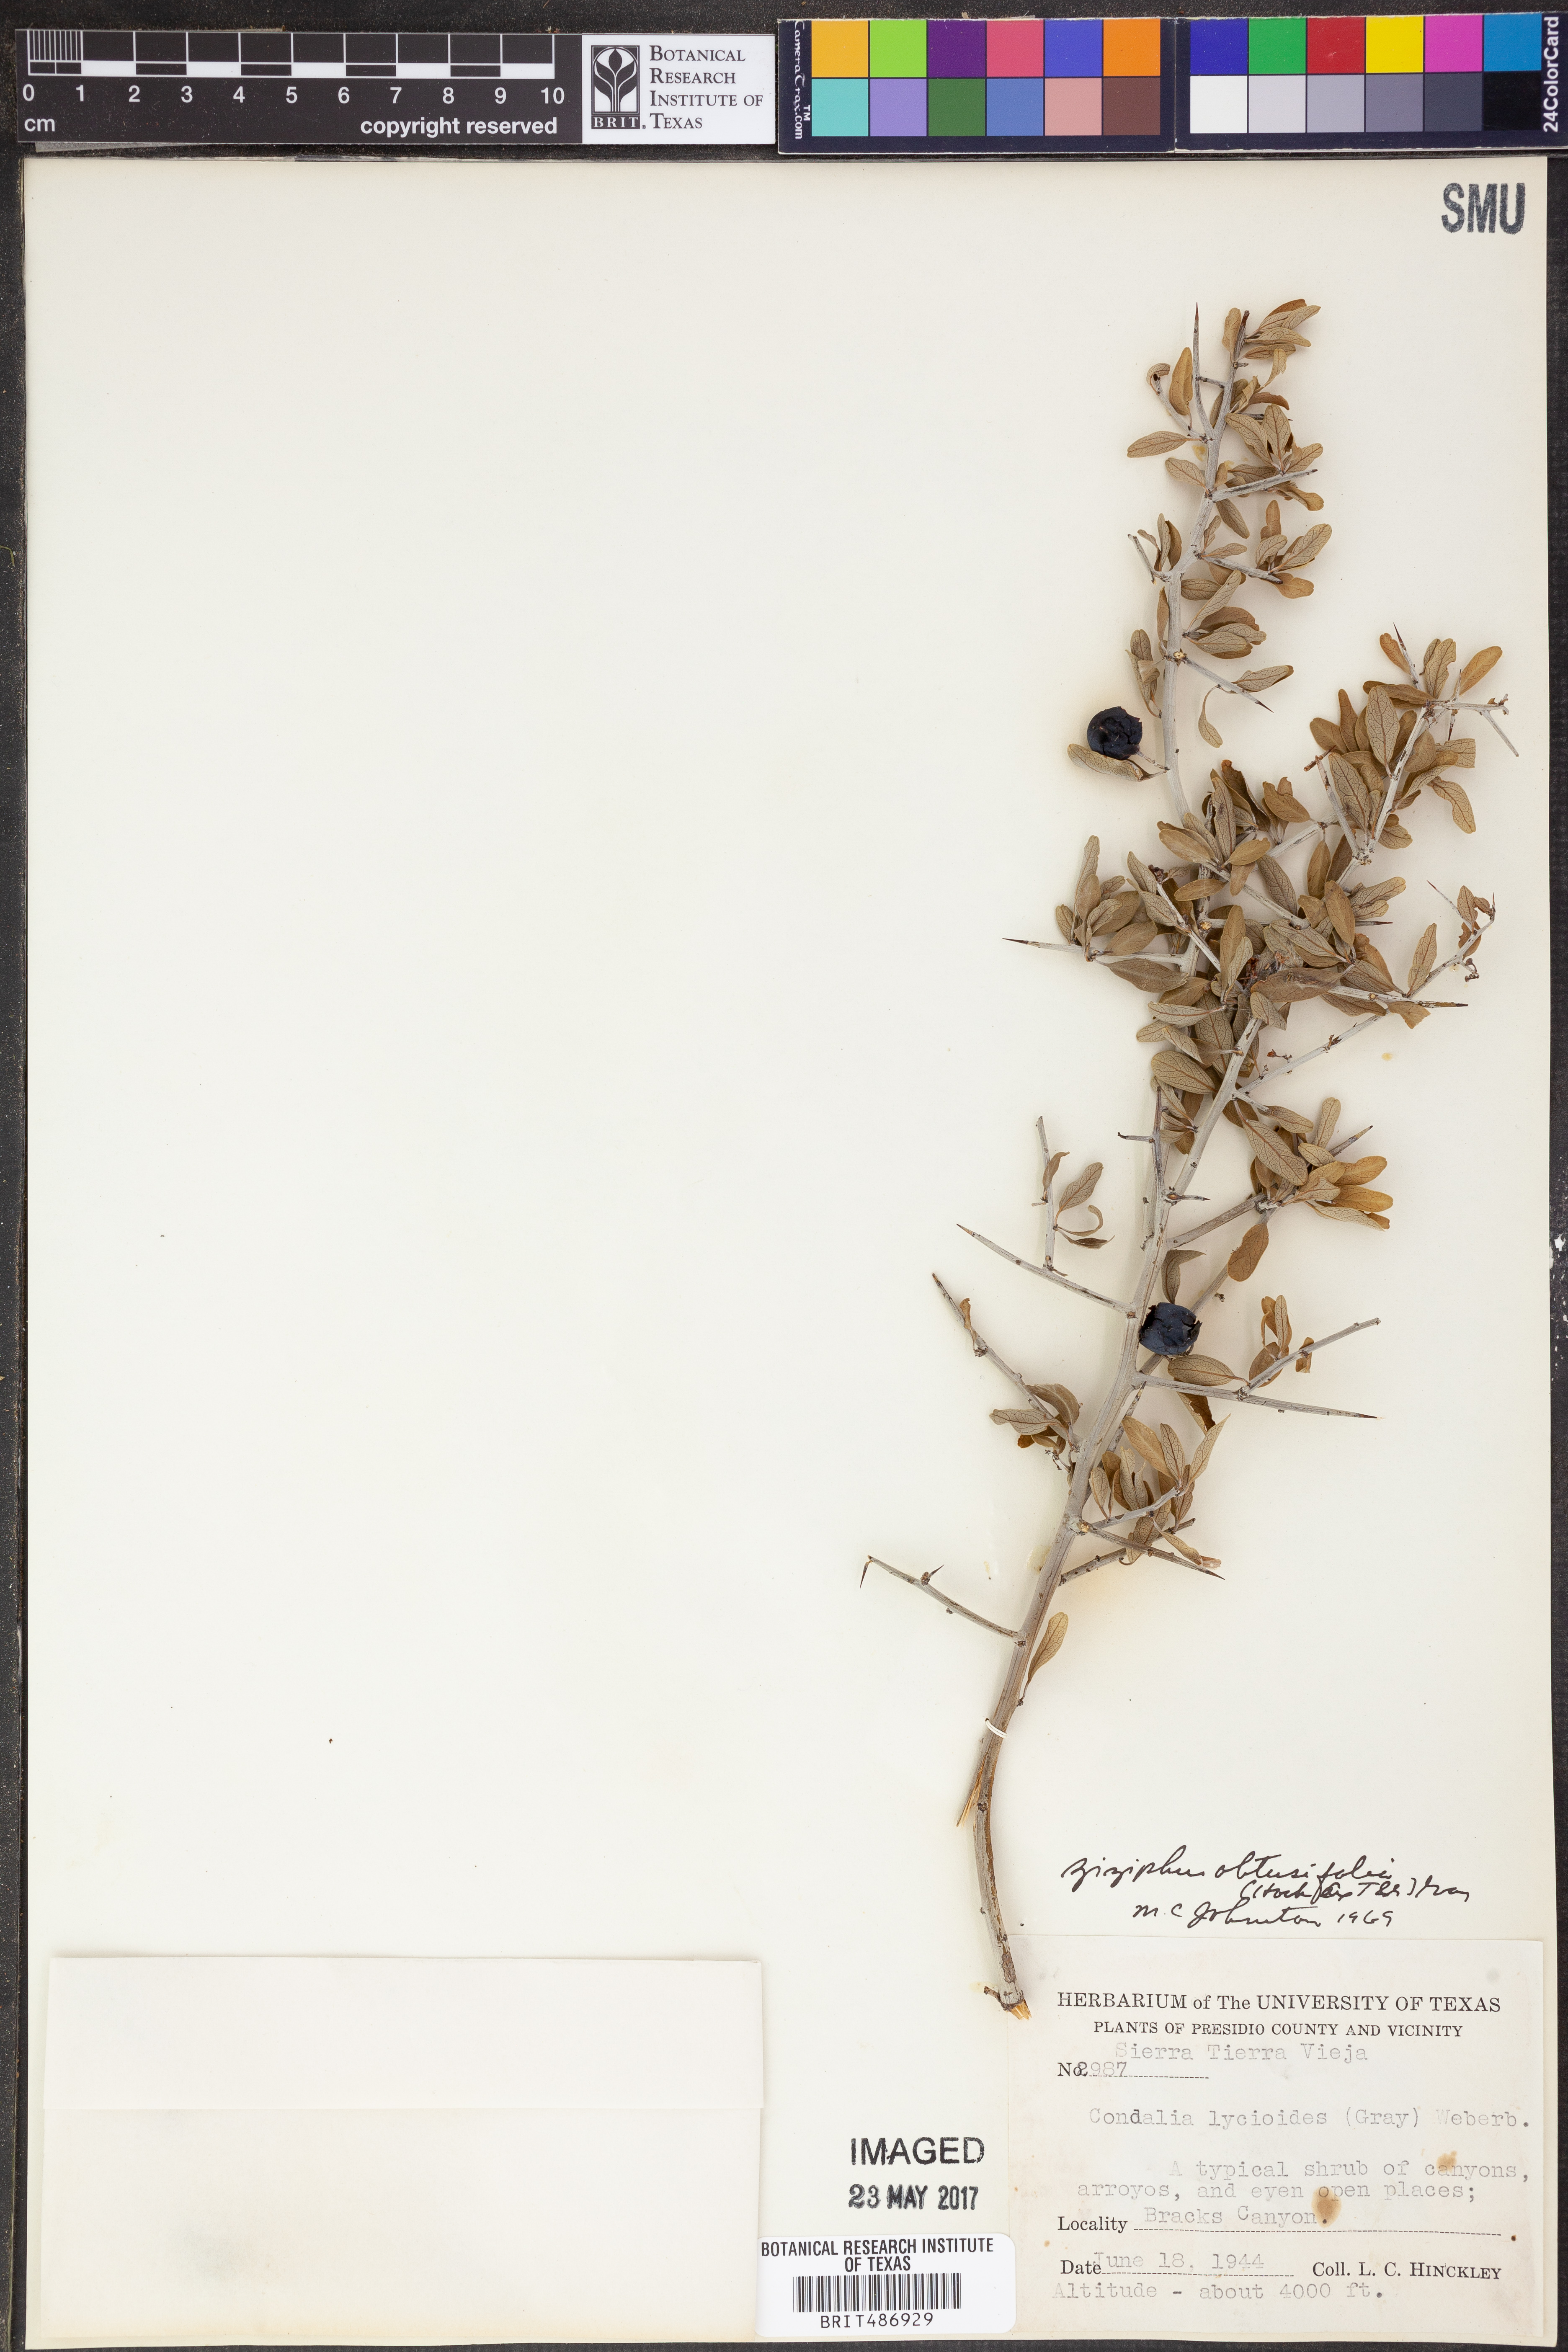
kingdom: Plantae
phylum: Tracheophyta
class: Magnoliopsida
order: Rosales
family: Rhamnaceae
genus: Sarcomphalus
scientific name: Sarcomphalus obtusifolius
